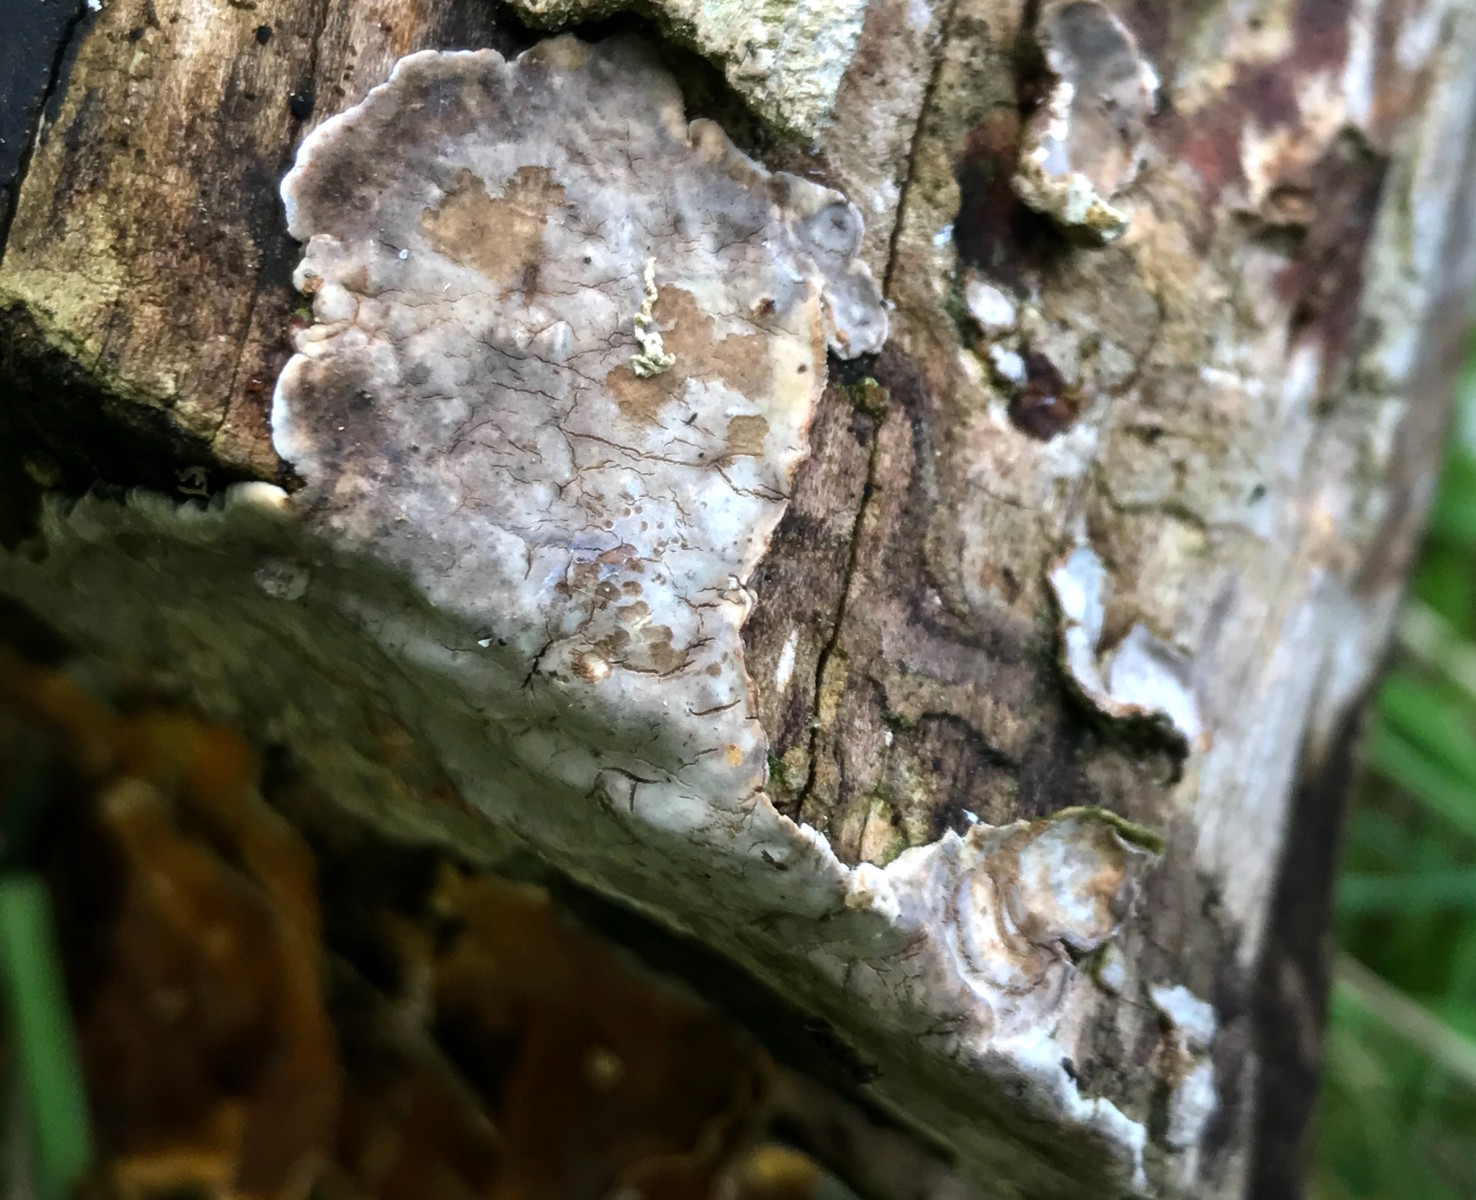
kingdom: Fungi
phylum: Basidiomycota
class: Agaricomycetes
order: Russulales
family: Stereaceae
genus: Stereum
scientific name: Stereum rugosum
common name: rynket lædersvamp
